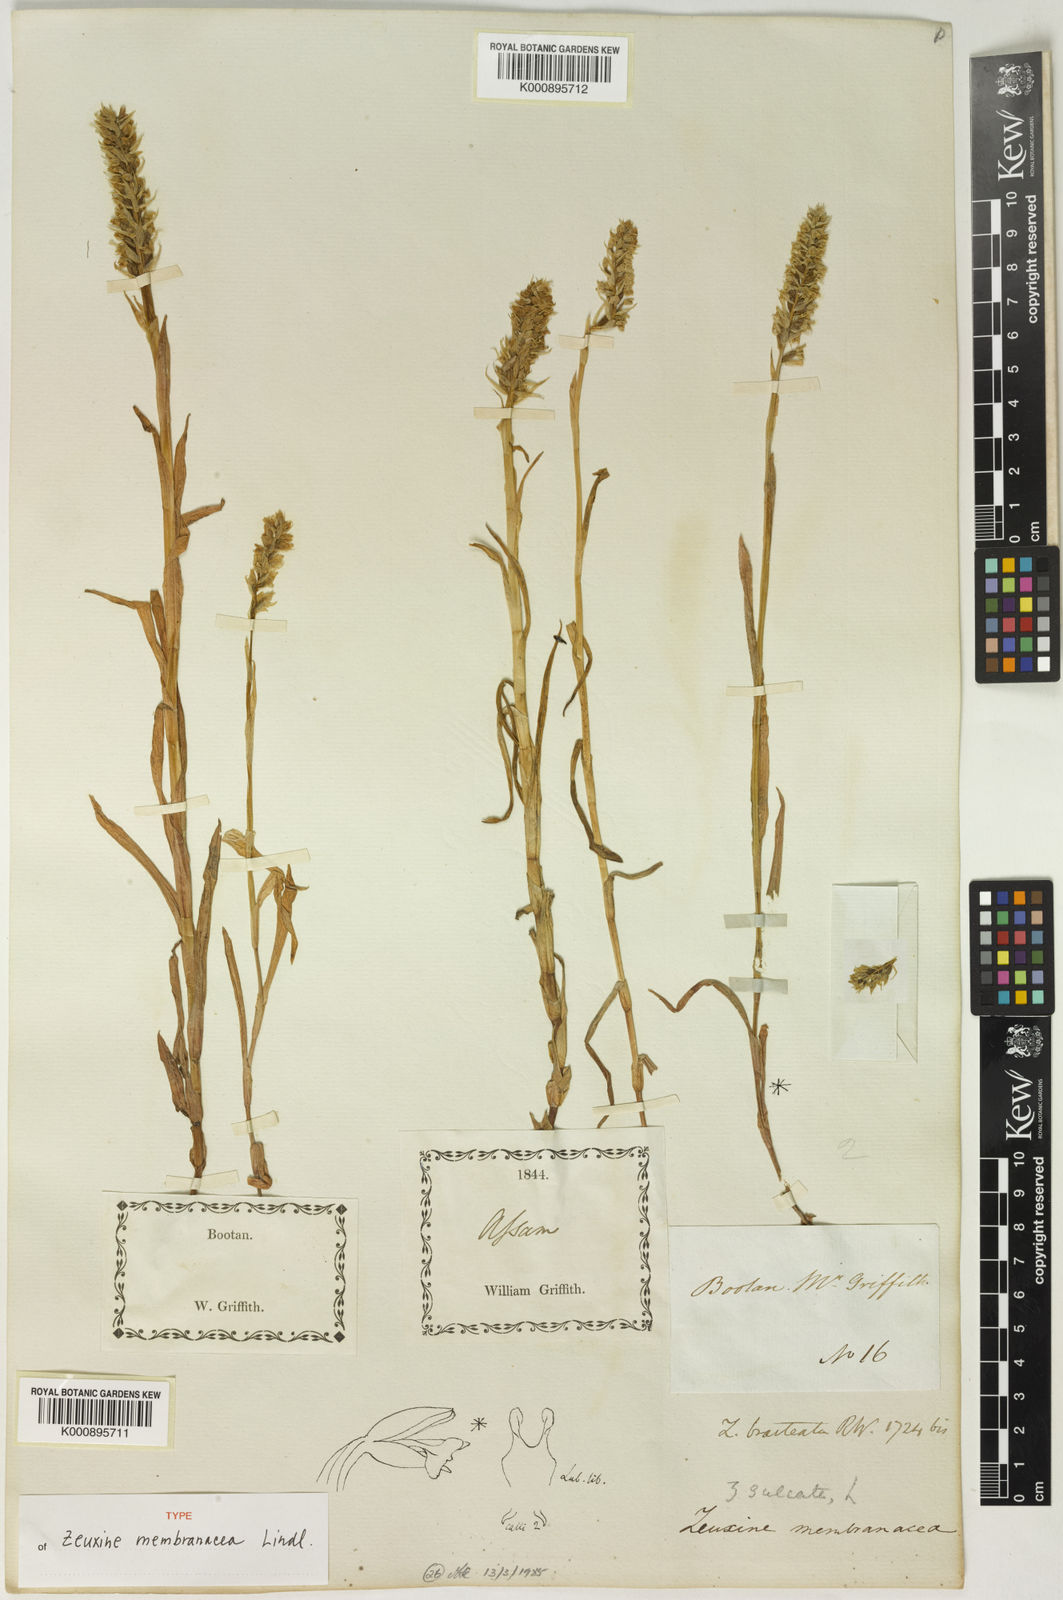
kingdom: Plantae
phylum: Tracheophyta
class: Liliopsida
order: Asparagales
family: Orchidaceae
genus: Zeuxine
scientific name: Zeuxine membranacea
